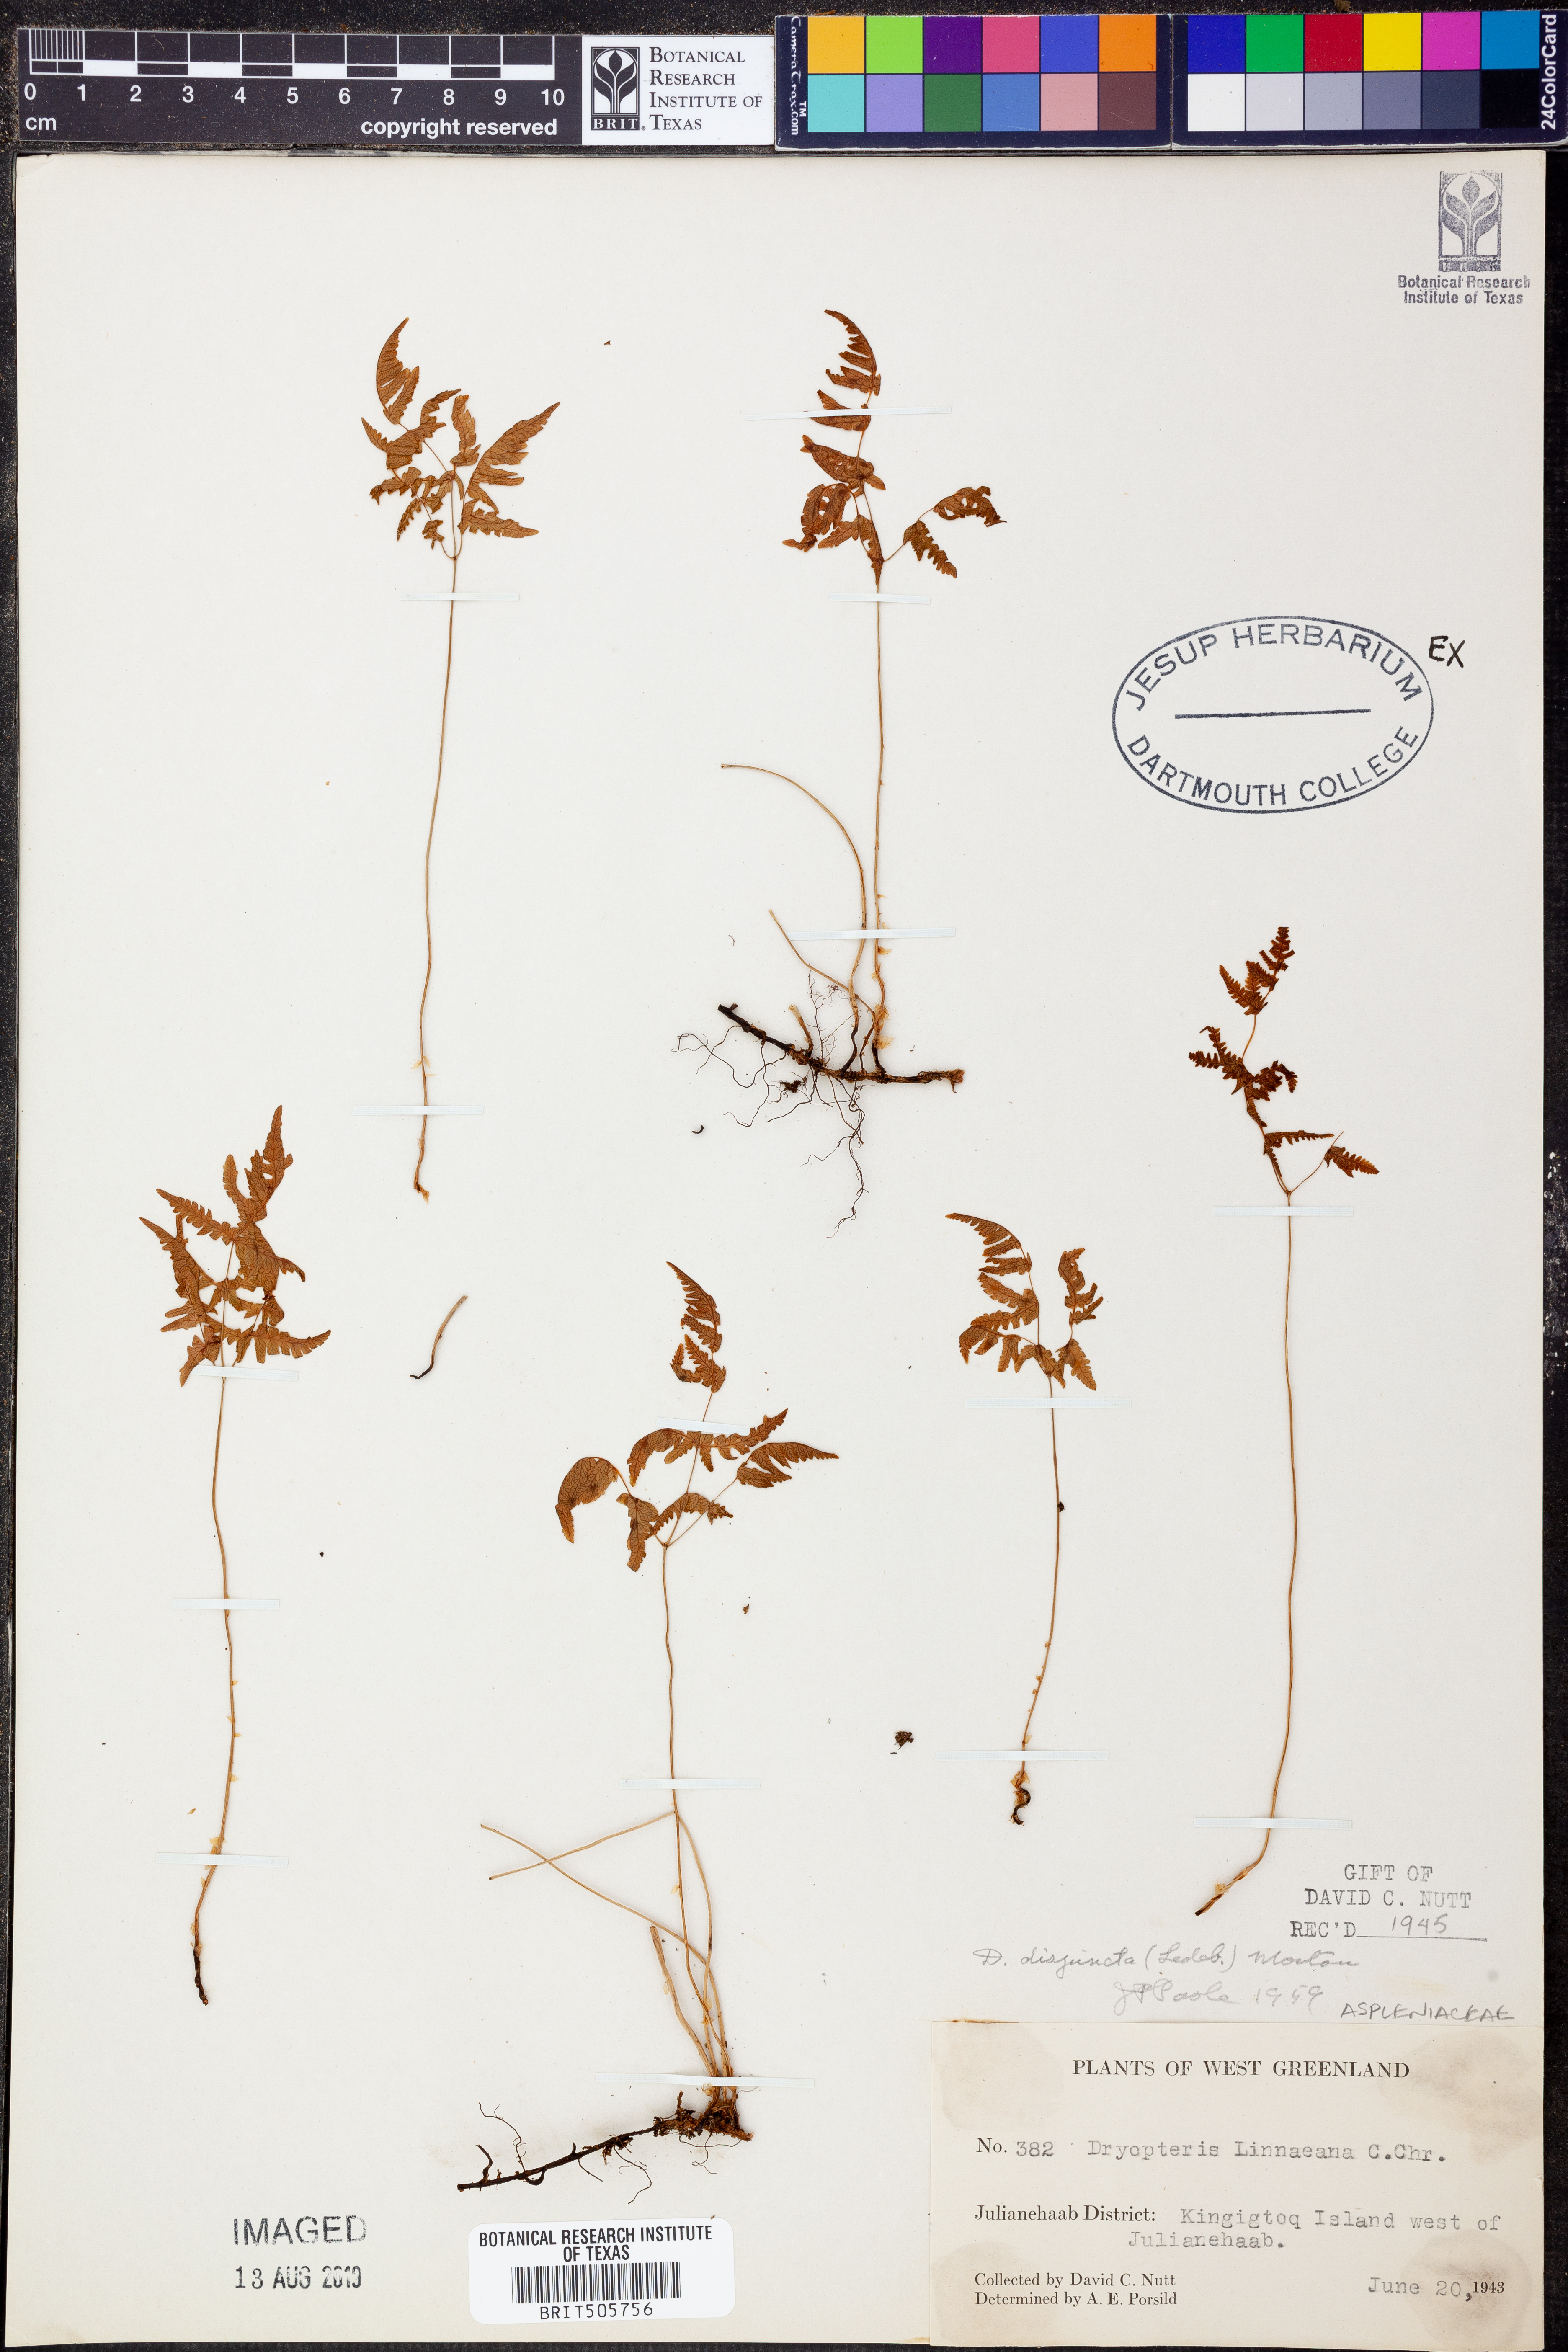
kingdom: Plantae
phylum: Tracheophyta
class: Polypodiopsida
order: Polypodiales
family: Cystopteridaceae
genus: Gymnocarpium
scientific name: Gymnocarpium disjunctum
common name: Western oak fern
